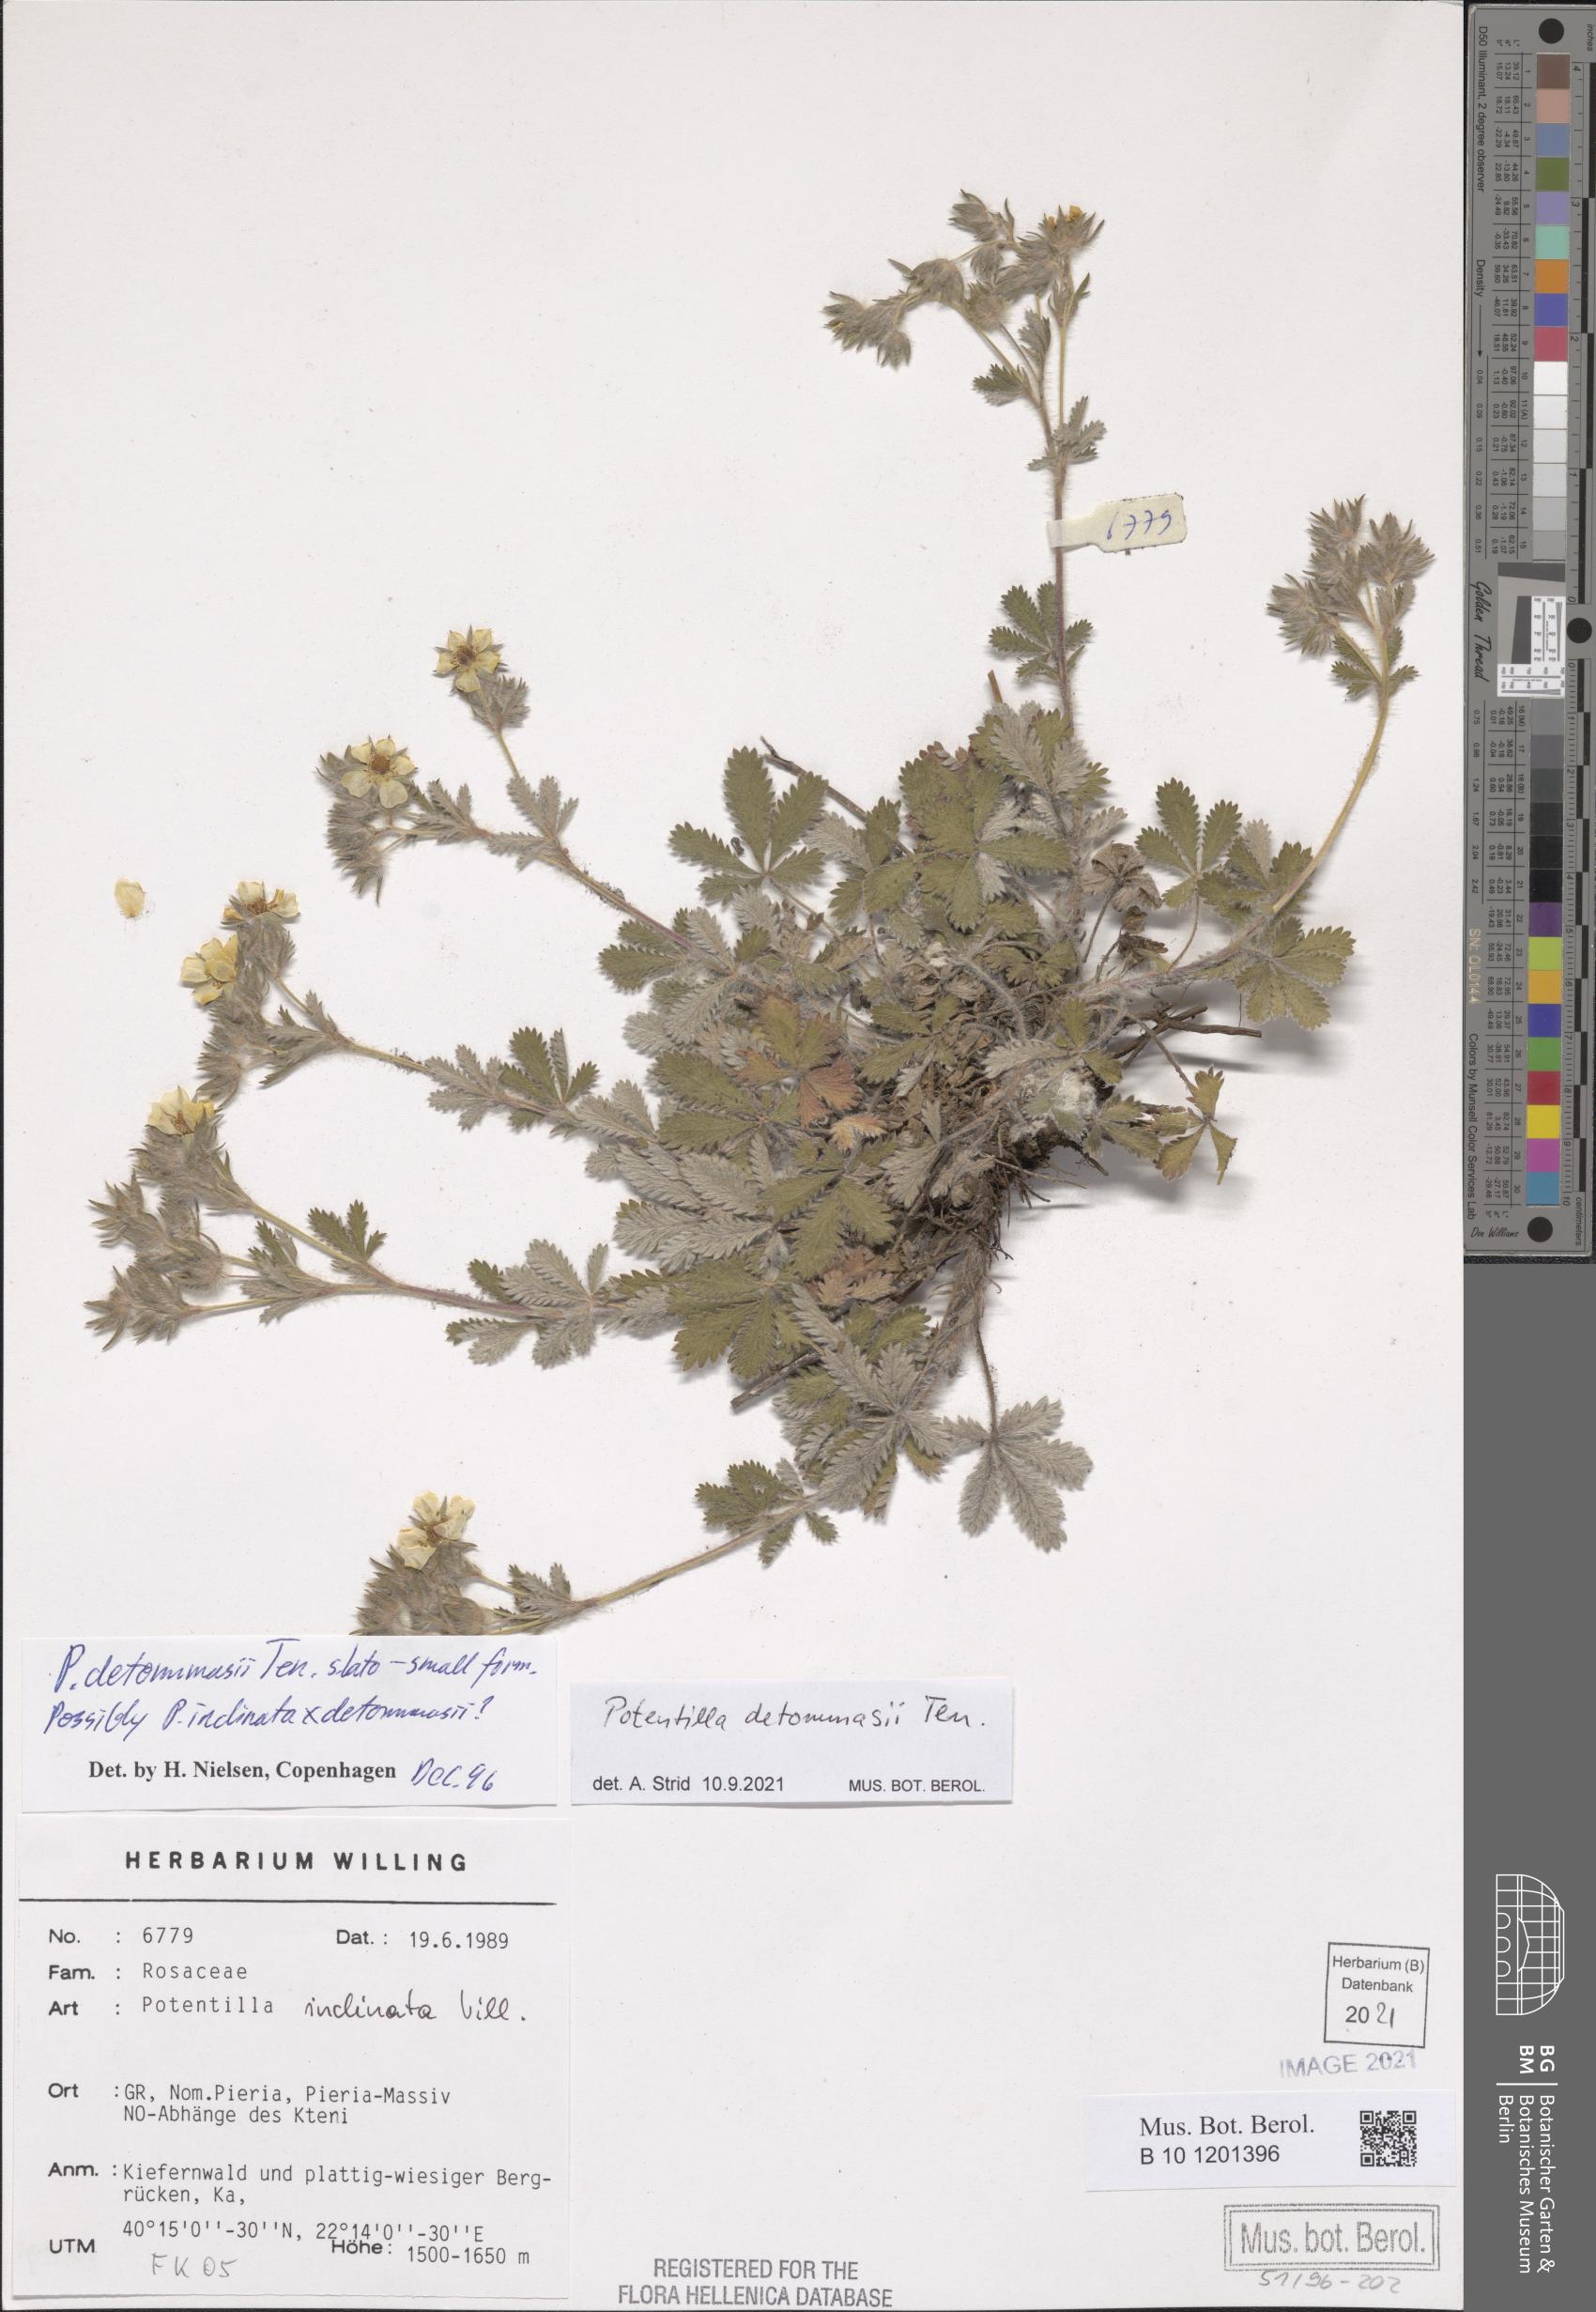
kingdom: Plantae
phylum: Tracheophyta
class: Magnoliopsida
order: Rosales
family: Rosaceae
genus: Potentilla
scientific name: Potentilla detommasii
